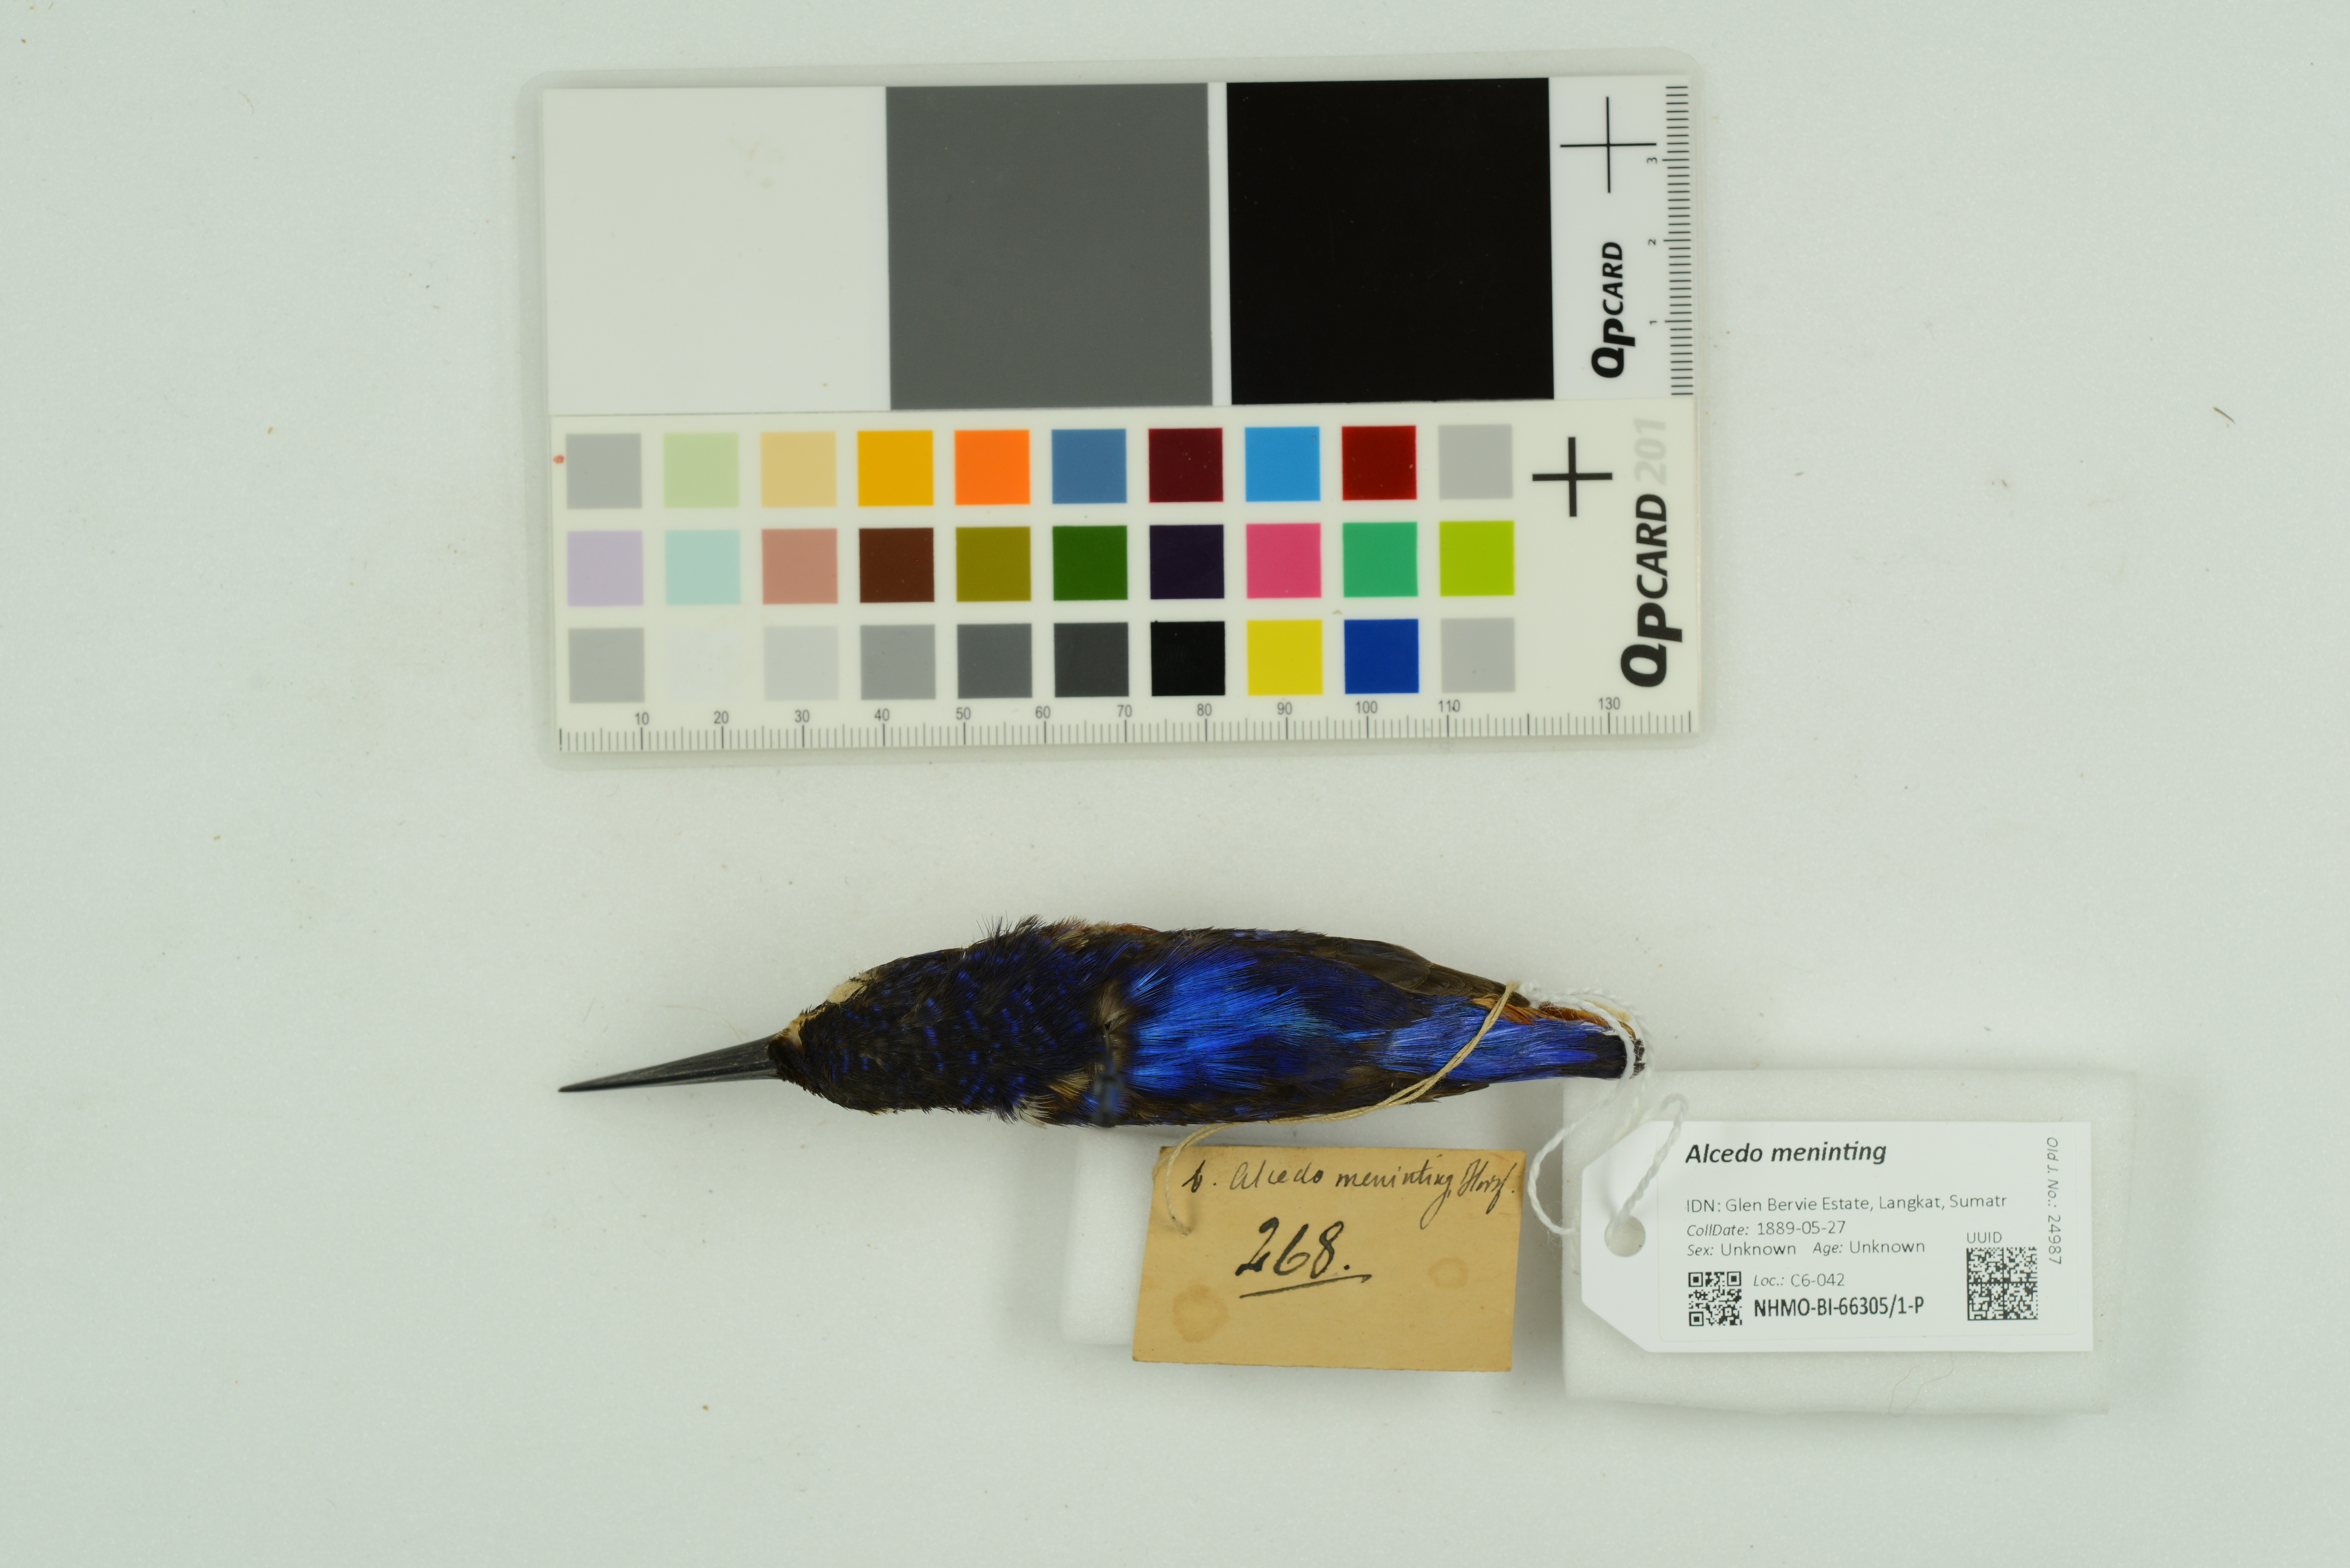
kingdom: Animalia
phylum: Chordata
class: Aves
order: Coraciiformes
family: Alcedinidae
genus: Alcedo
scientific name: Alcedo meninting
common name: Blue-eared kingfisher
